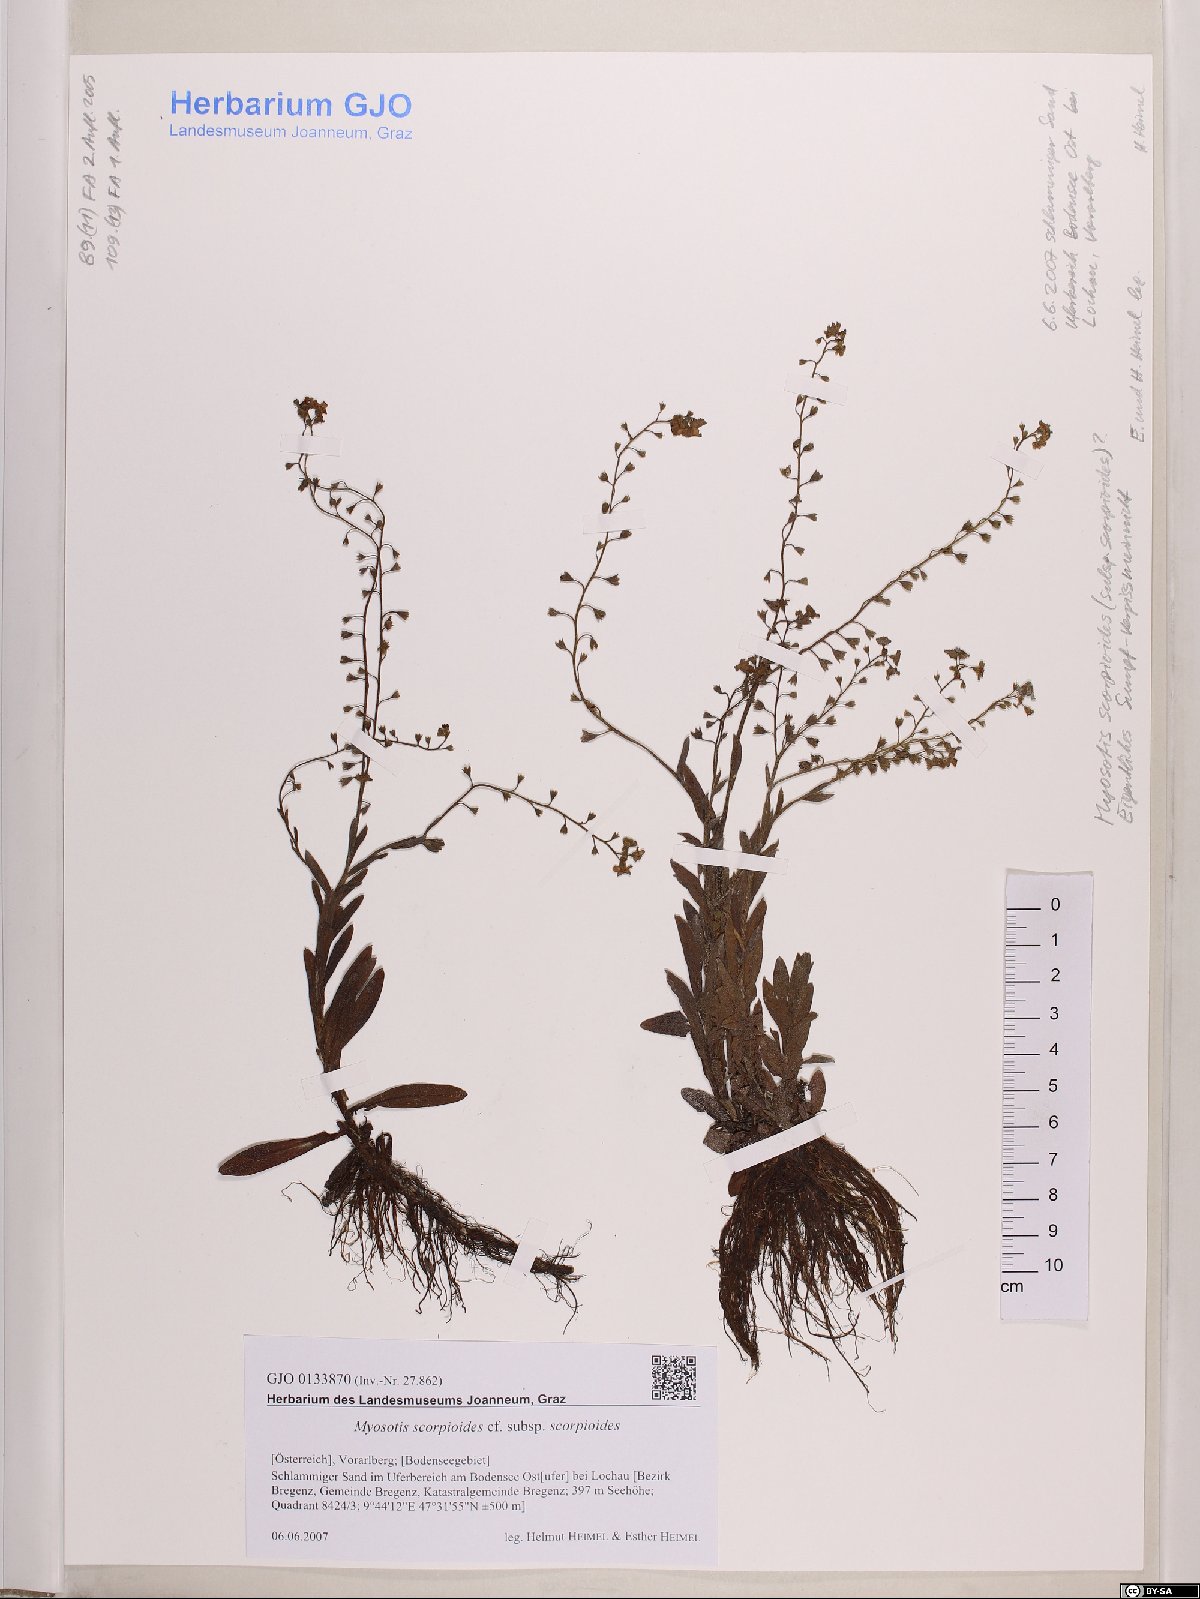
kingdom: Plantae
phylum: Tracheophyta
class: Magnoliopsida
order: Boraginales
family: Boraginaceae
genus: Myosotis
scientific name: Myosotis scorpioides
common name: Water forget-me-not
